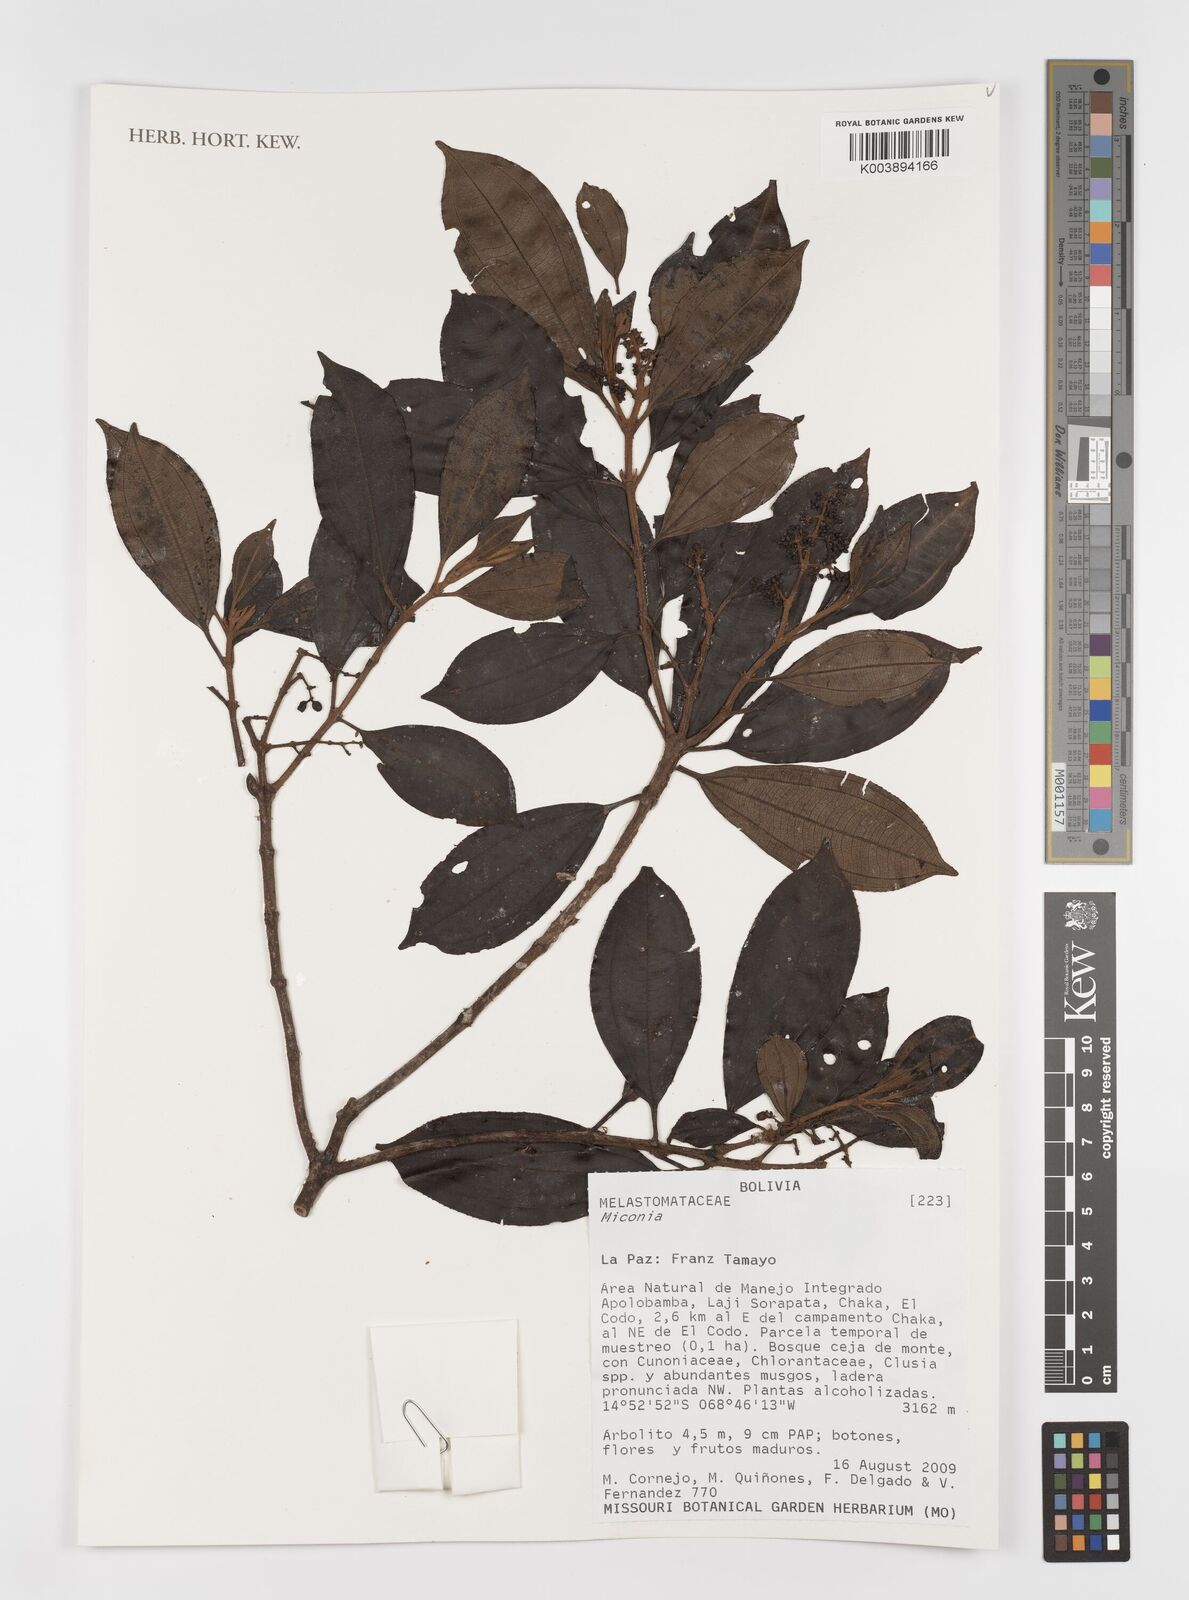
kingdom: Plantae
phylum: Tracheophyta
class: Magnoliopsida
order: Myrtales
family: Melastomataceae
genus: Miconia
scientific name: Miconia
